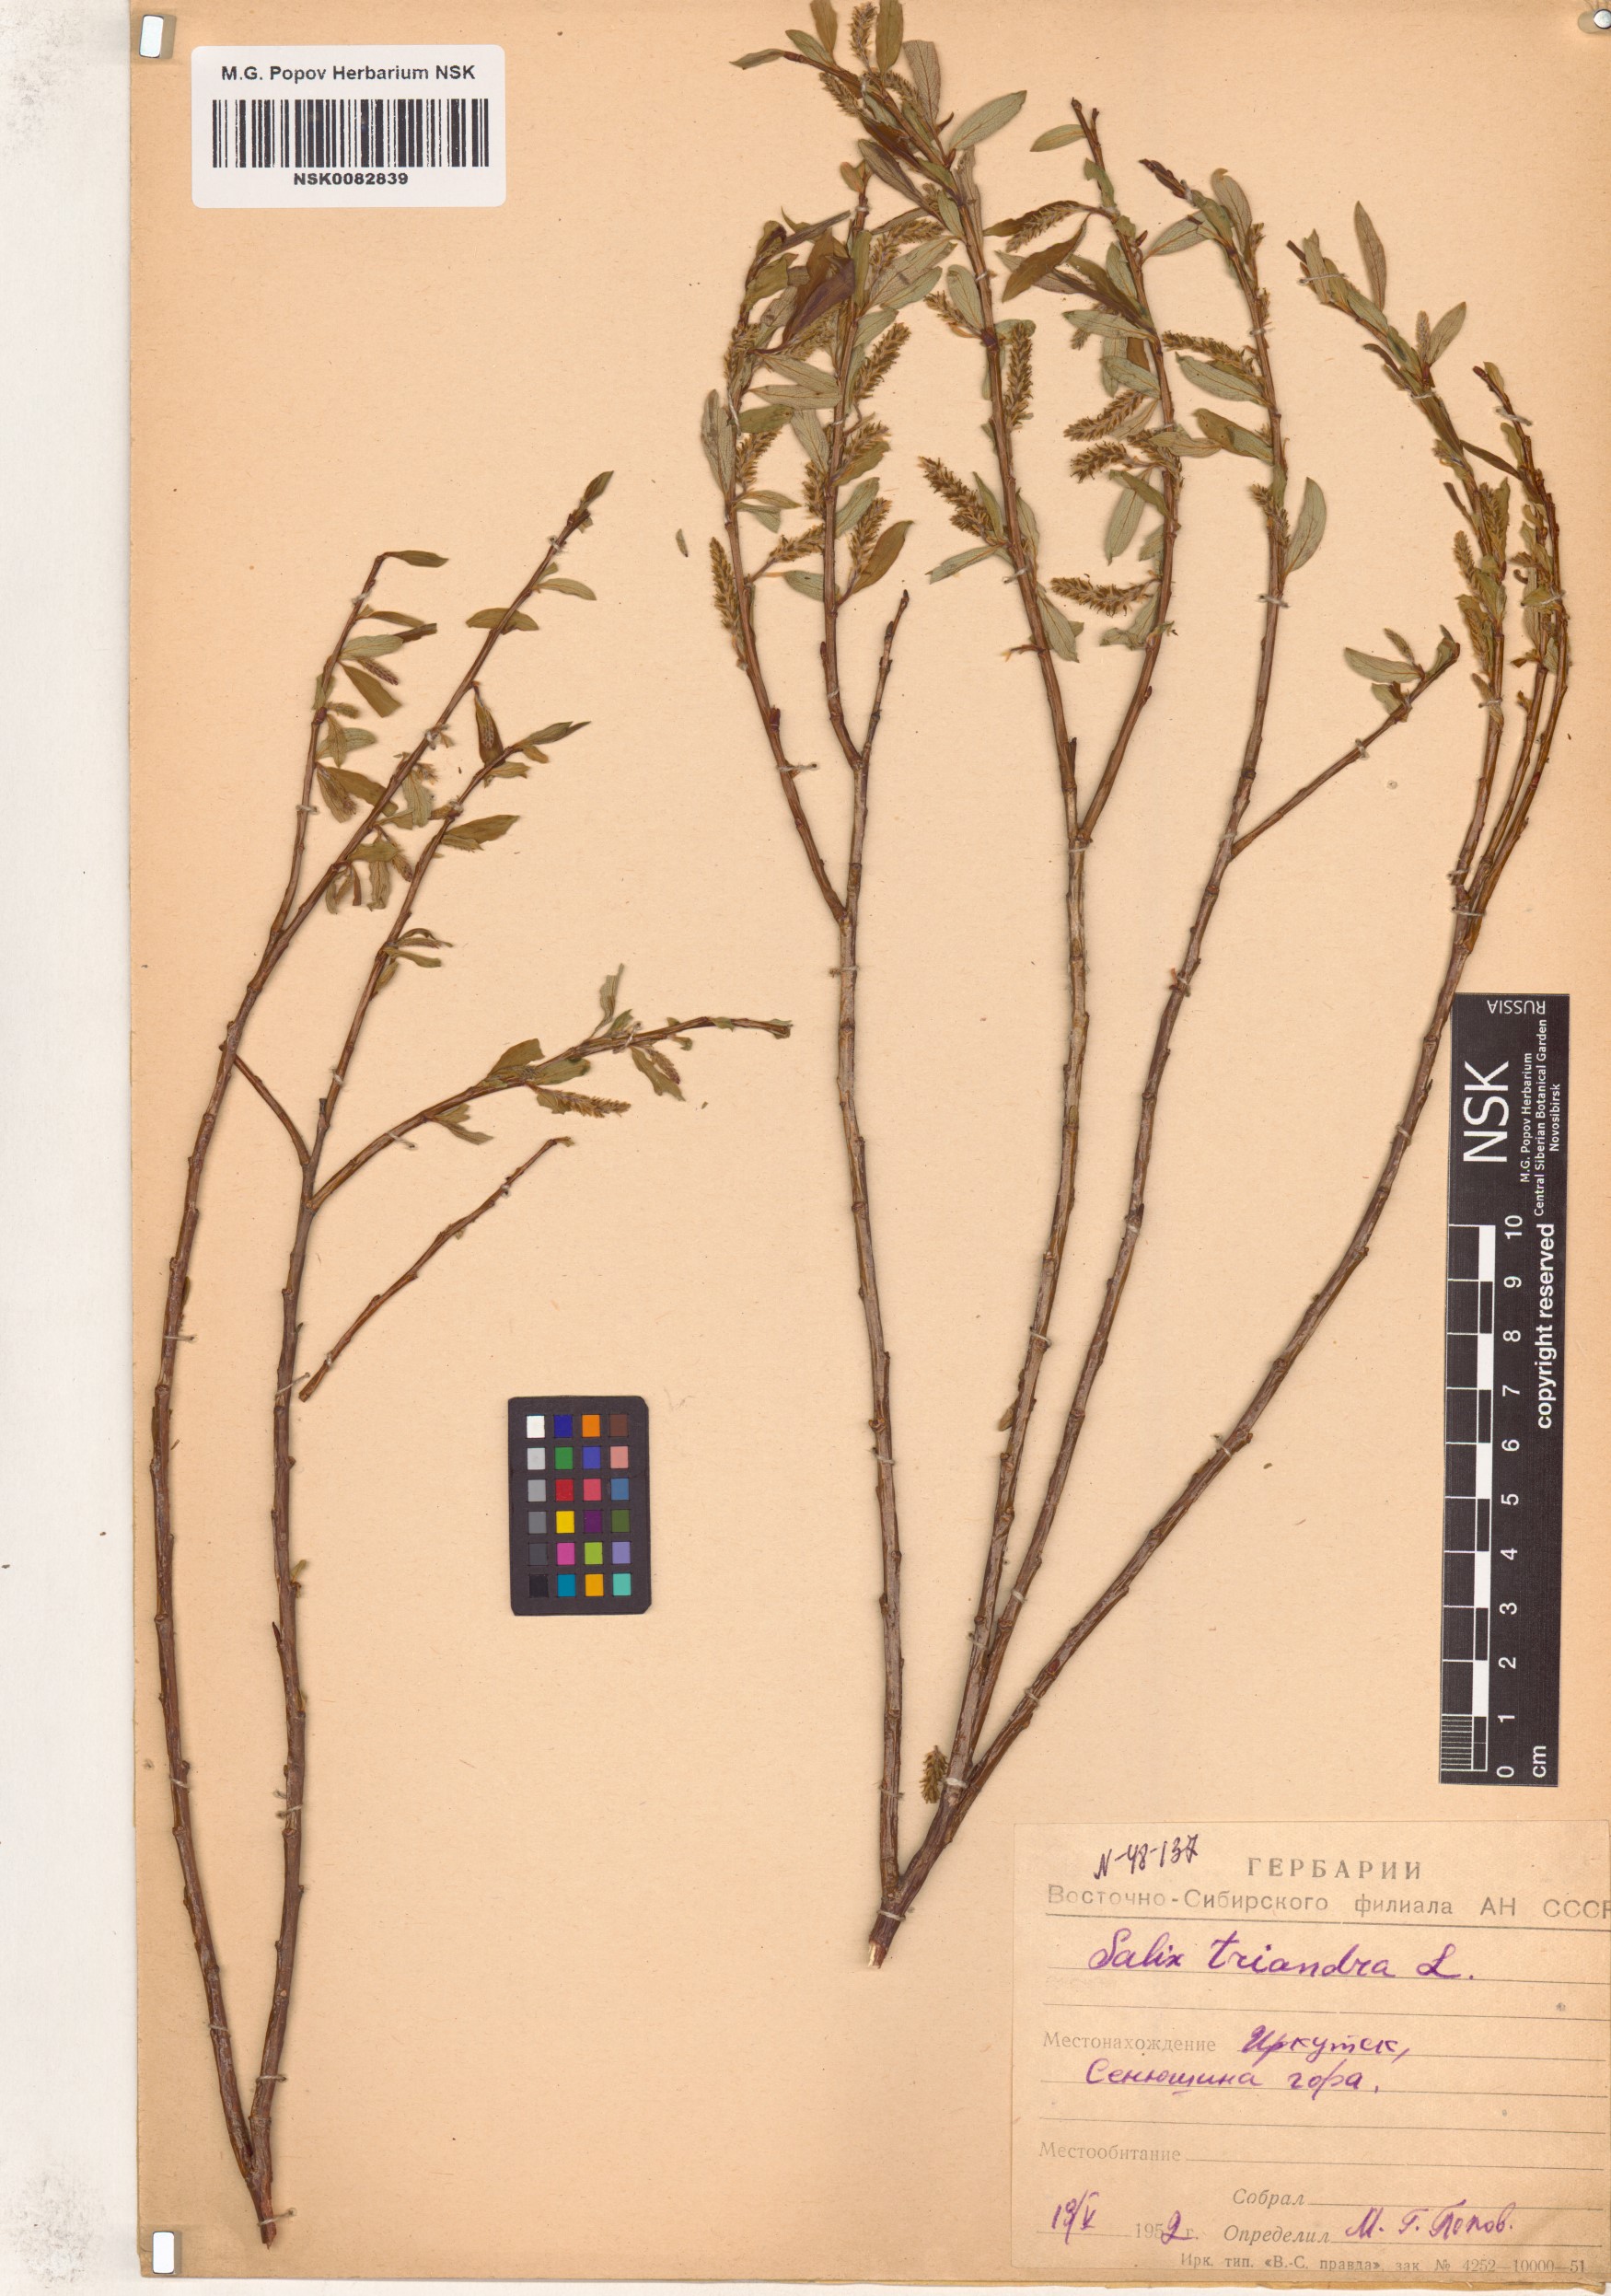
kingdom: Plantae
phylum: Tracheophyta
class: Magnoliopsida
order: Malpighiales
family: Salicaceae
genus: Salix
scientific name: Salix triandra
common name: Almond willow
